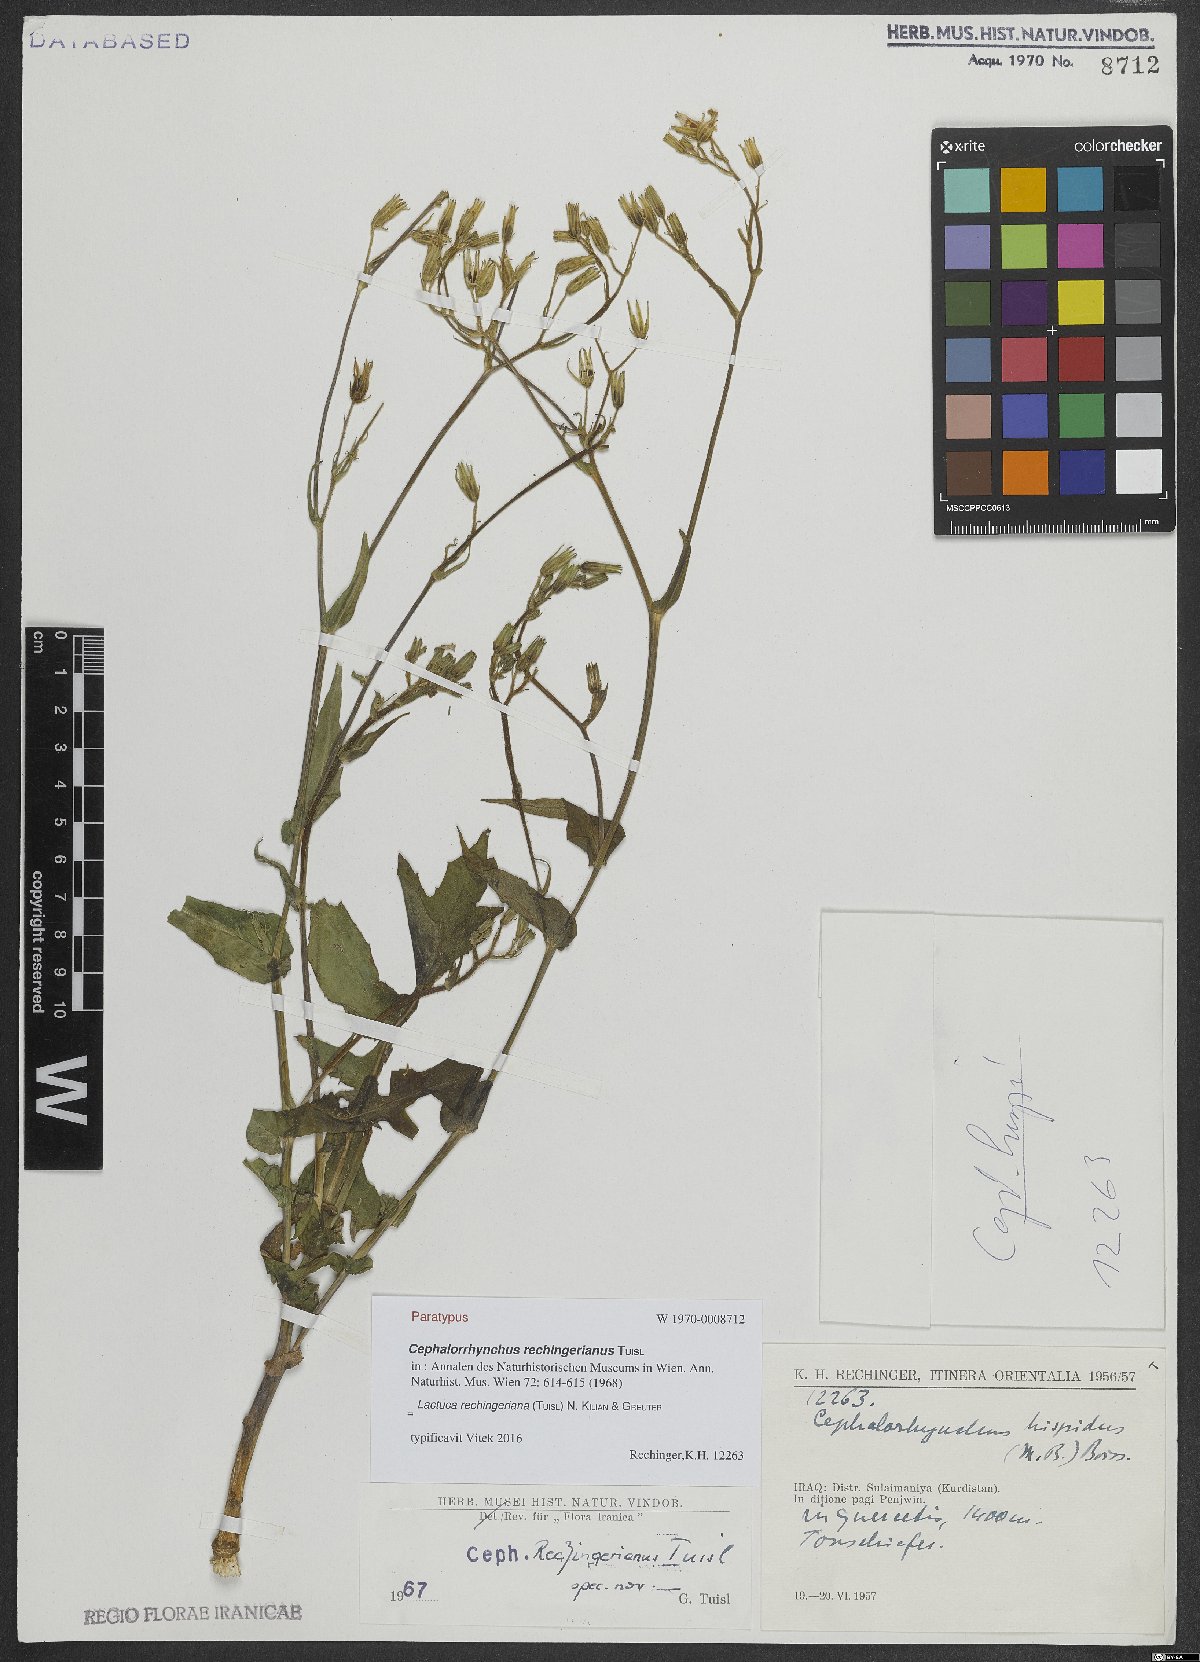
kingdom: Plantae
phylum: Tracheophyta
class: Magnoliopsida
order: Asterales
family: Asteraceae
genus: Cicerbita
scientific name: Cicerbita rechingeriana
